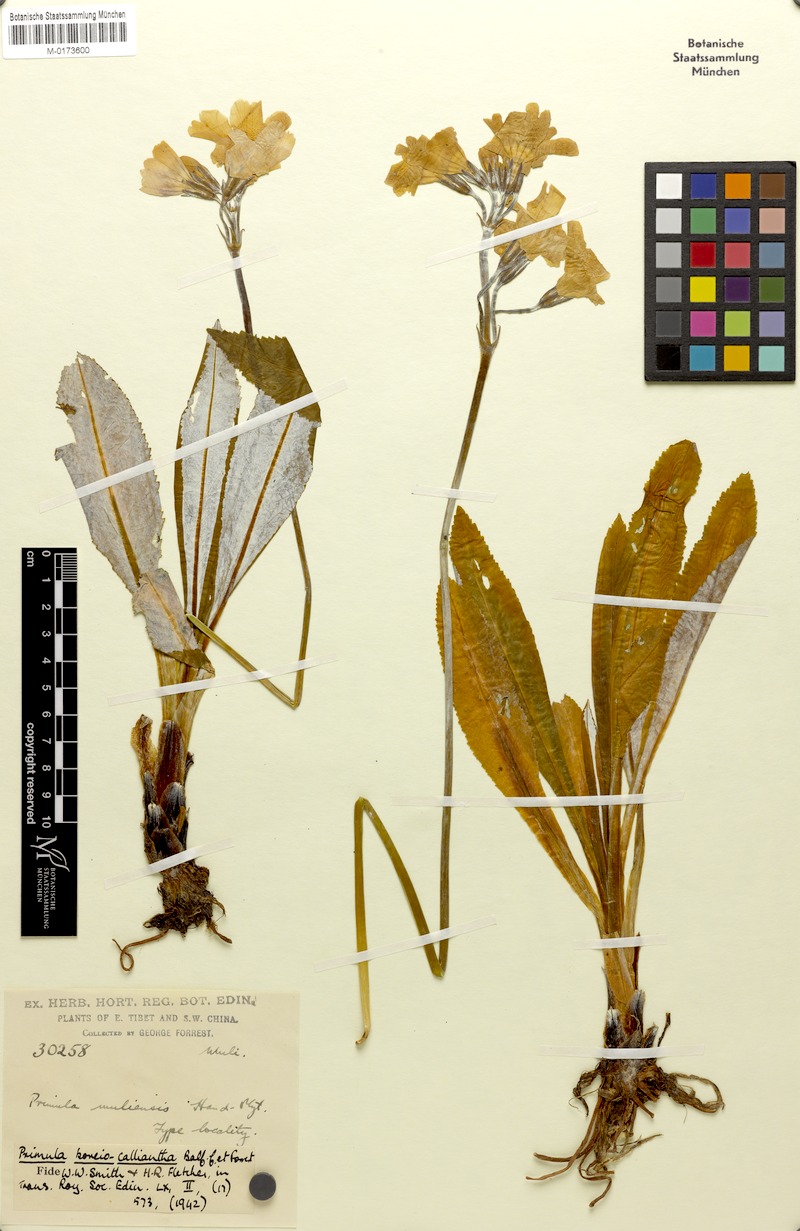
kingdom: Plantae
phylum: Tracheophyta
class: Magnoliopsida
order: Ericales
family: Primulaceae
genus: Primula
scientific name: Primula boreiocalliantha
